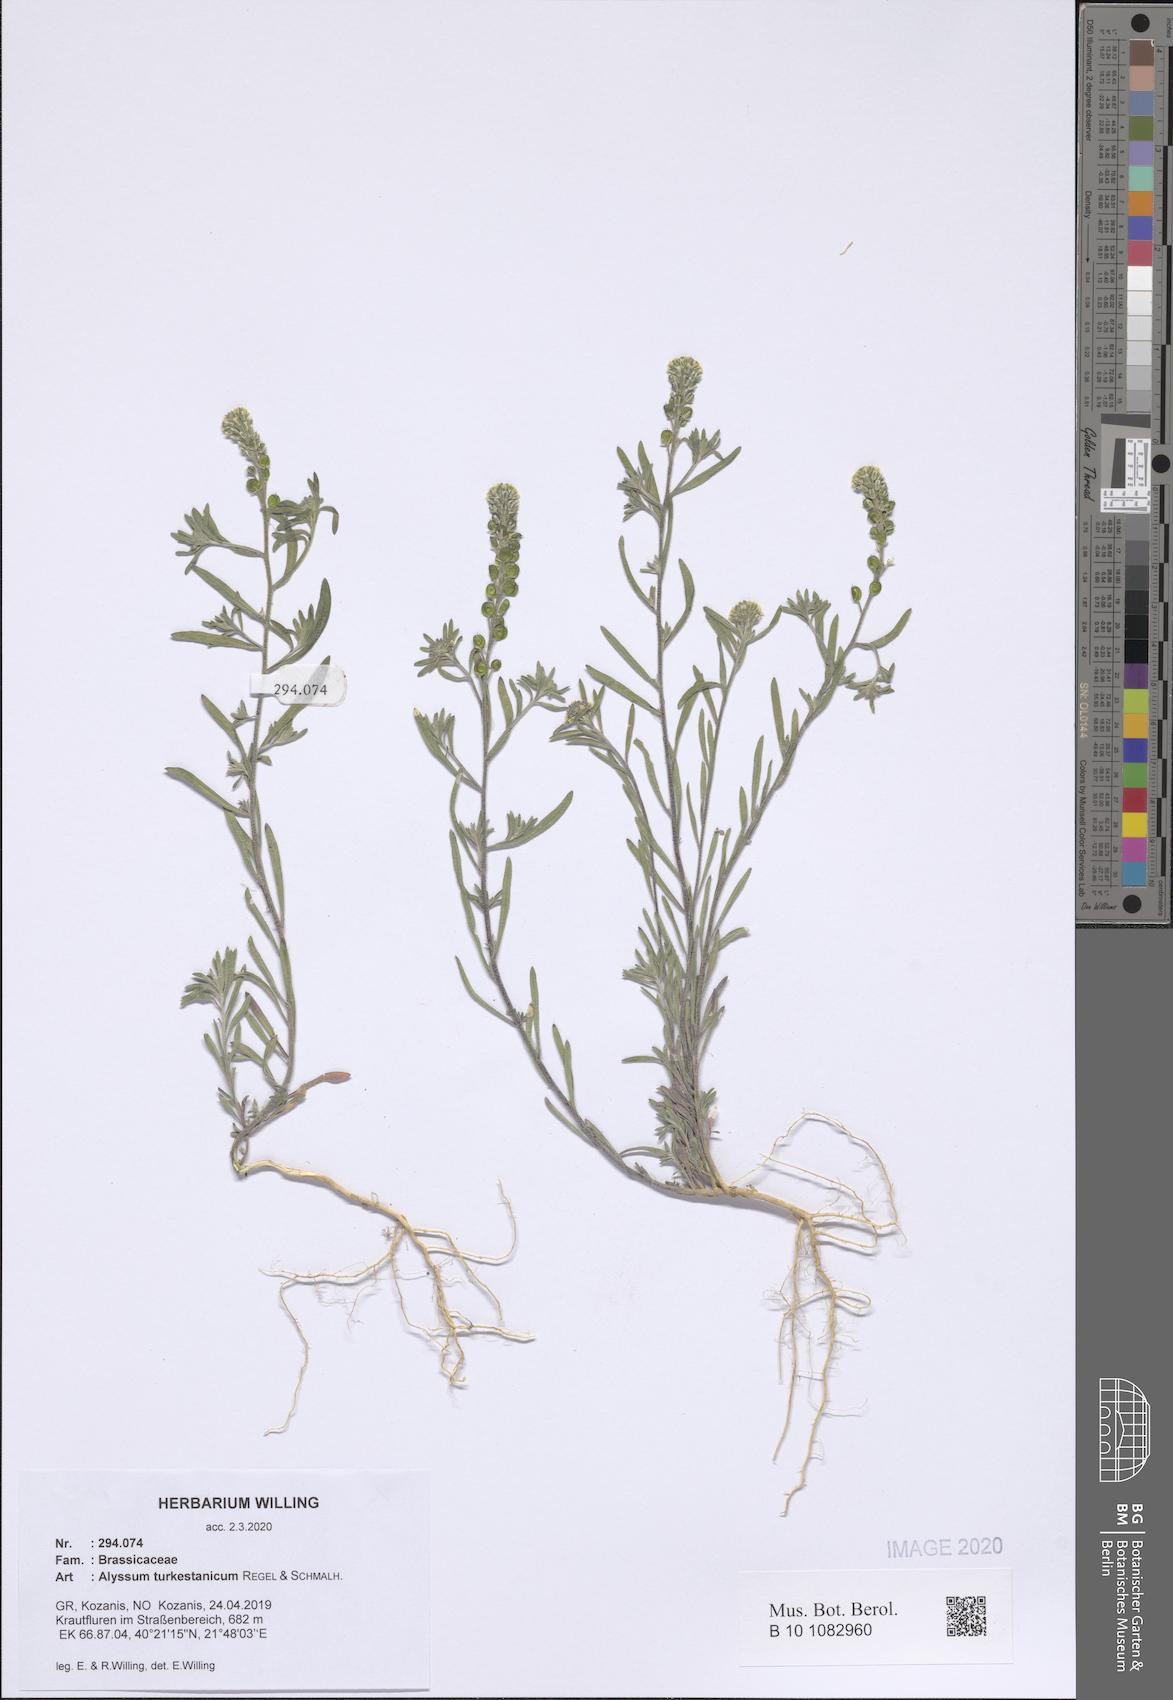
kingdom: Plantae
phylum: Tracheophyta
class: Magnoliopsida
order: Brassicales
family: Brassicaceae
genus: Alyssum
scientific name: Alyssum turkestanicum
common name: Desert alyssum
